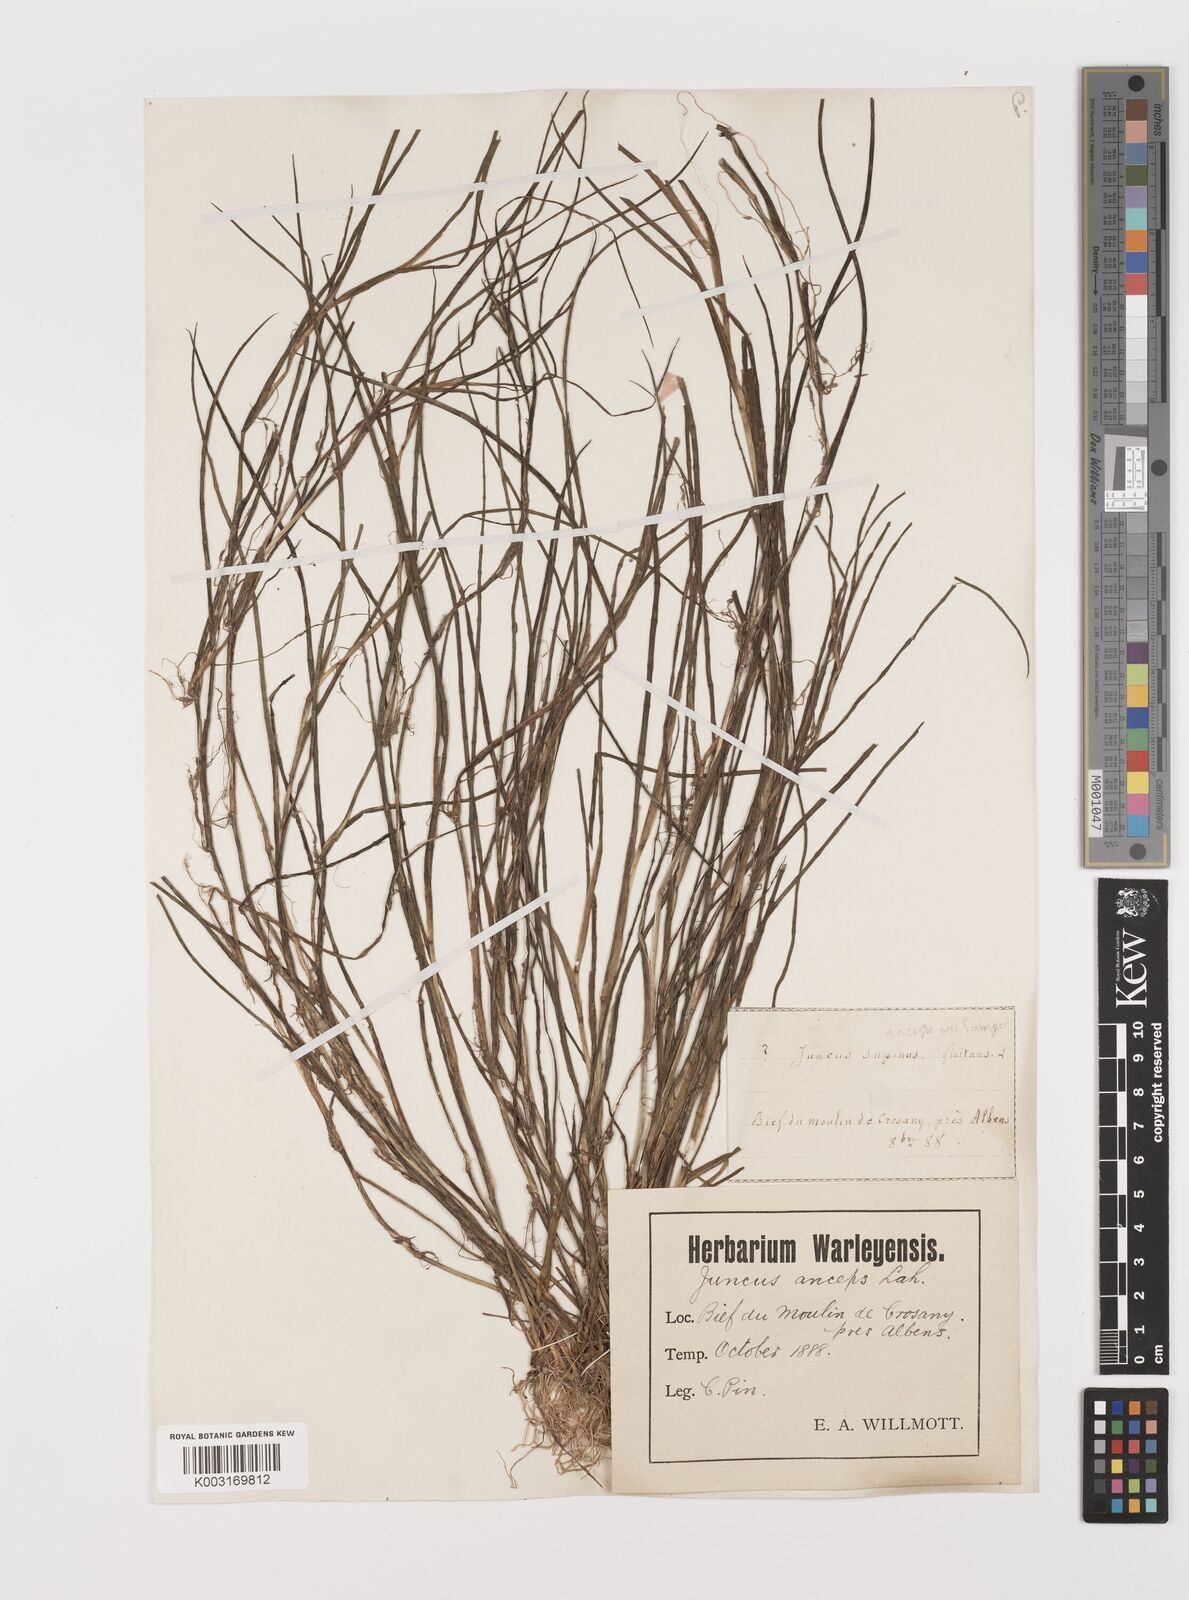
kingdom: Plantae
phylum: Tracheophyta
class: Liliopsida
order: Poales
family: Juncaceae
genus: Juncus
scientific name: Juncus anceps
